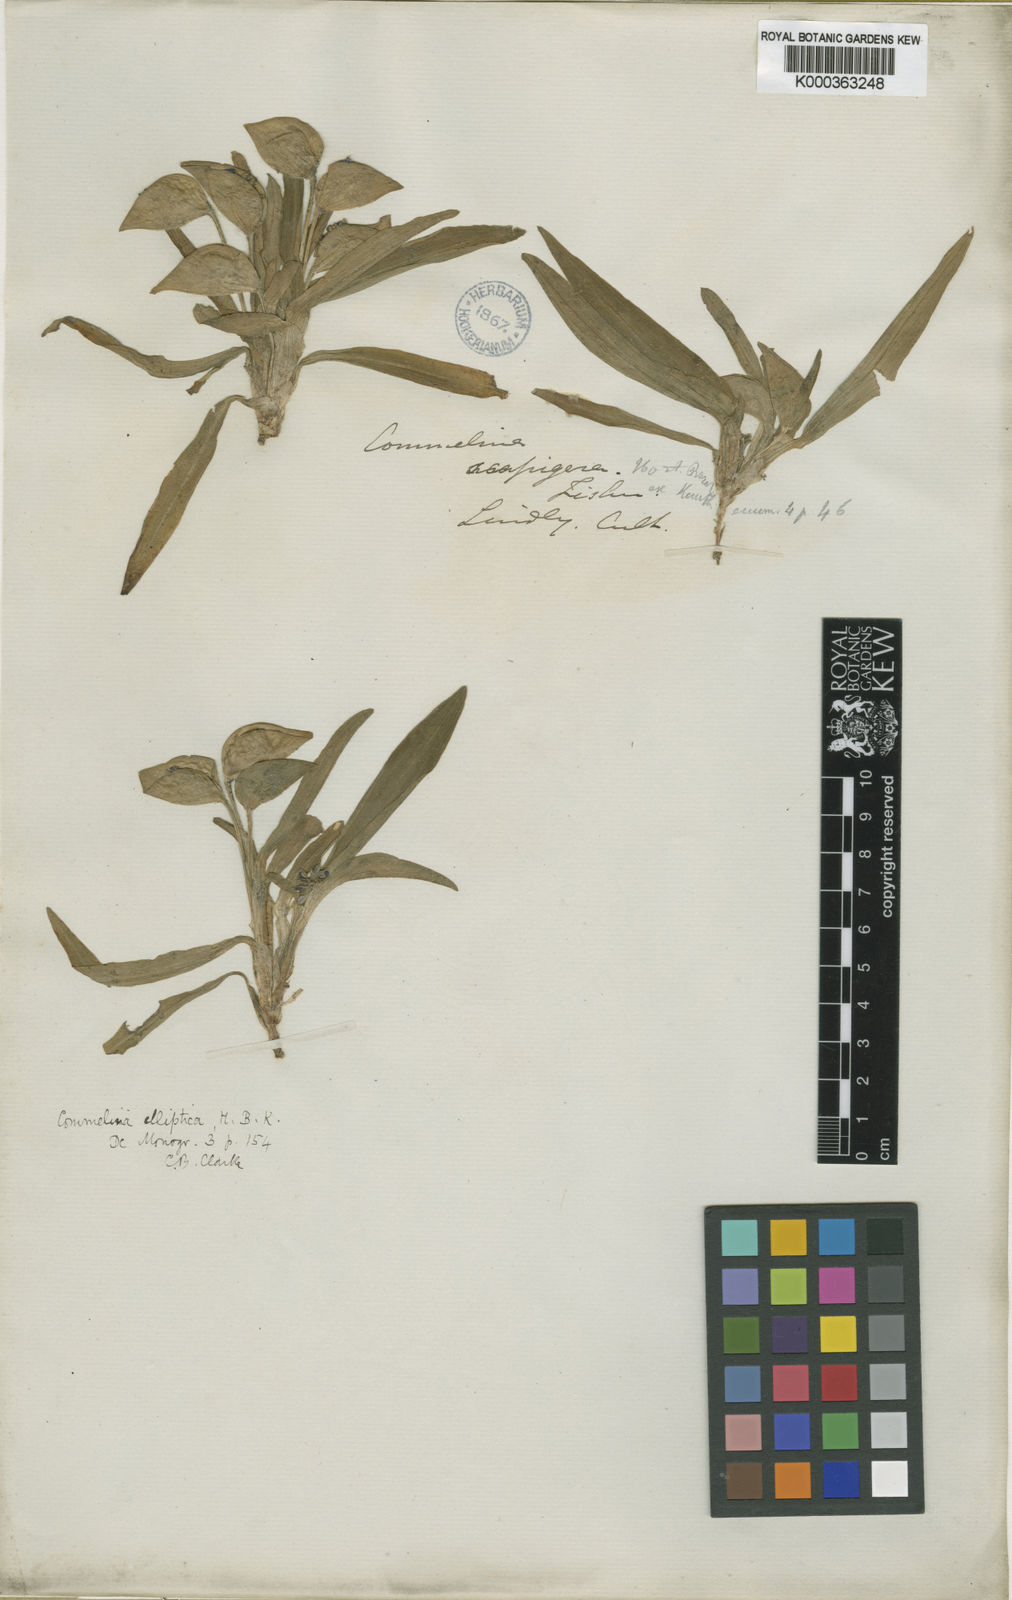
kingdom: Plantae
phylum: Tracheophyta
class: Liliopsida
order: Commelinales
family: Commelinaceae
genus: Commelina
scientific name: Commelina
